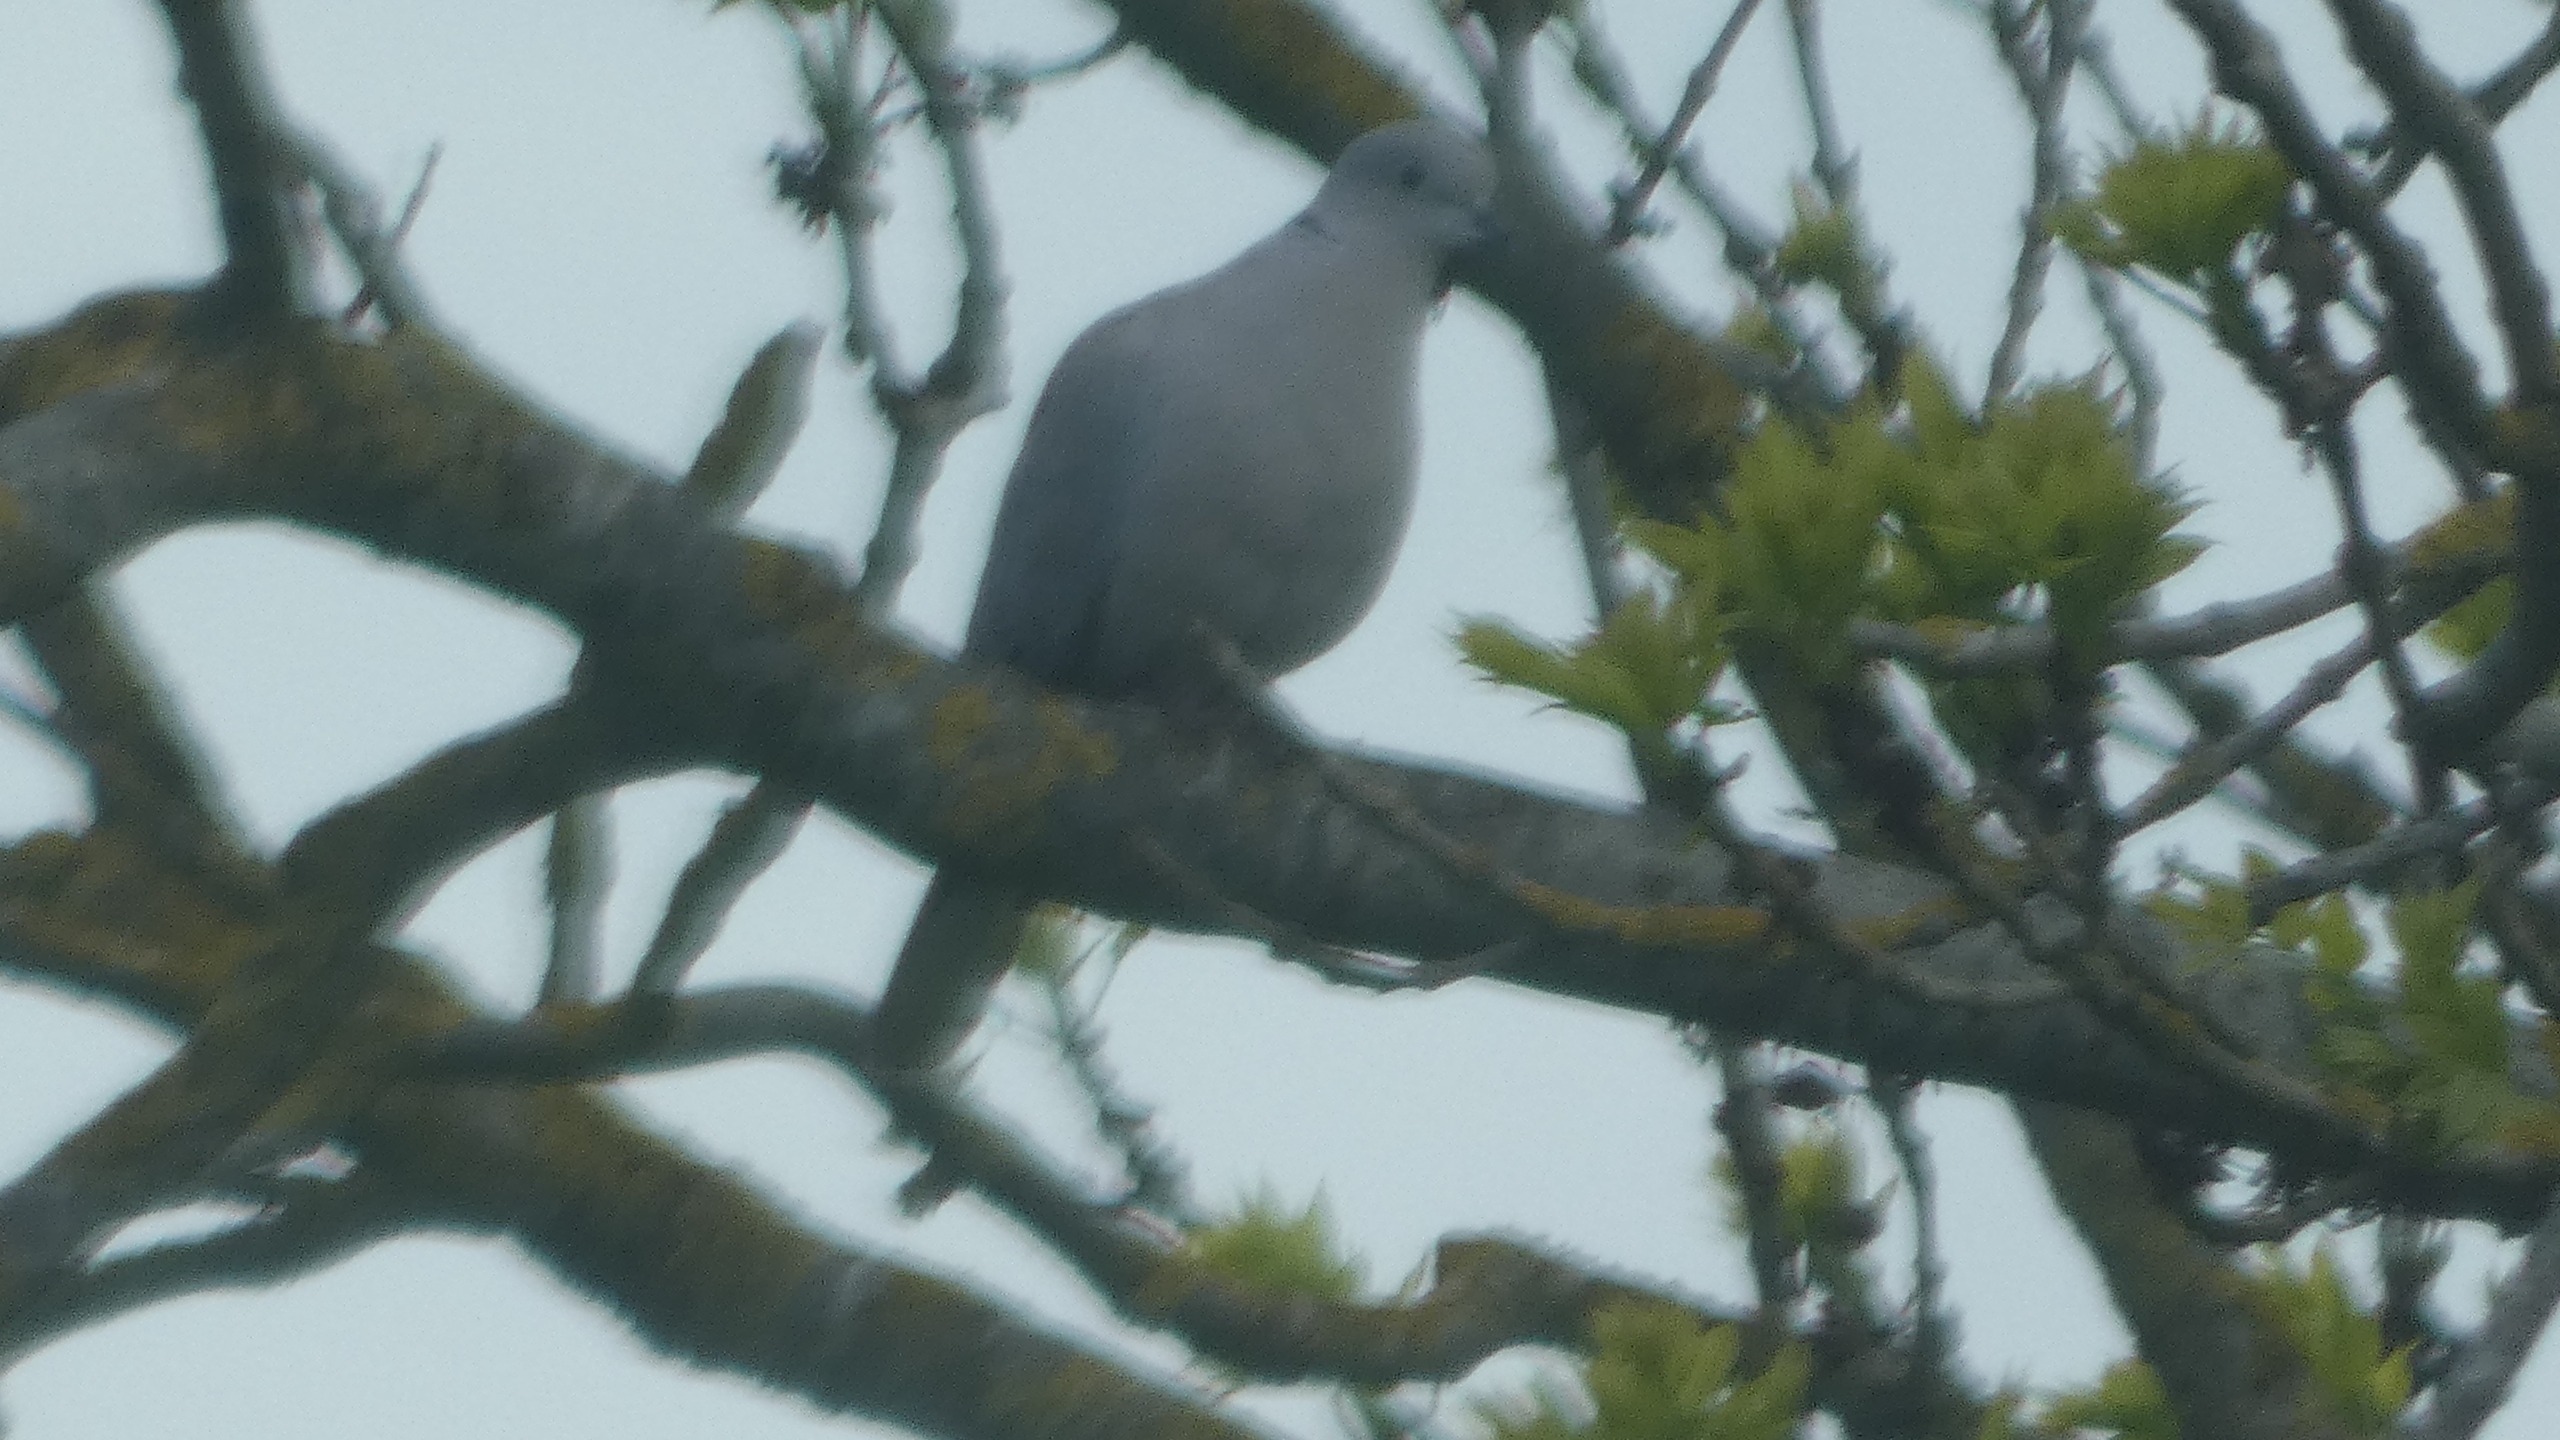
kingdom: Animalia
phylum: Chordata
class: Aves
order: Columbiformes
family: Columbidae
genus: Streptopelia
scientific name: Streptopelia decaocto
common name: Tyrkerdue
